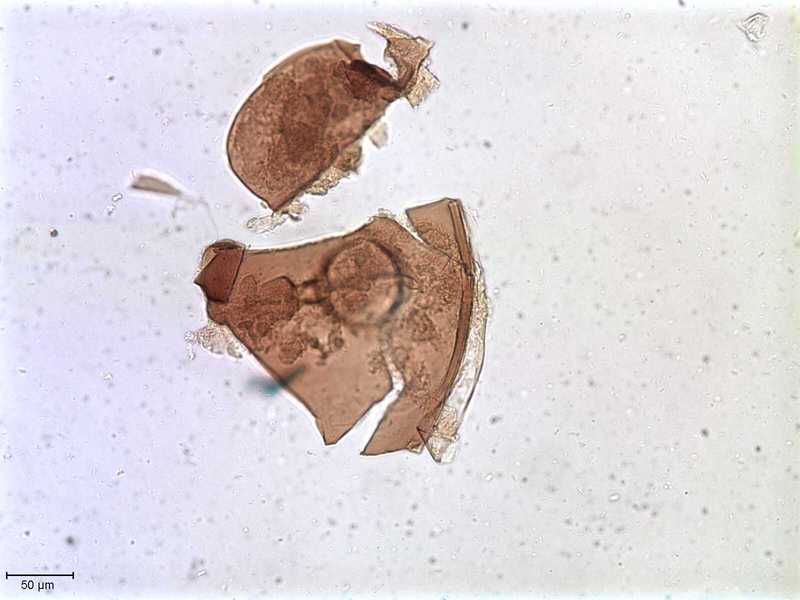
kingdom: Animalia
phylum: Arthropoda
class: Arachnida
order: Sarcoptiformes
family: Tegoribatidae
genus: Plakoribates
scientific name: Plakoribates multicuspidatus
